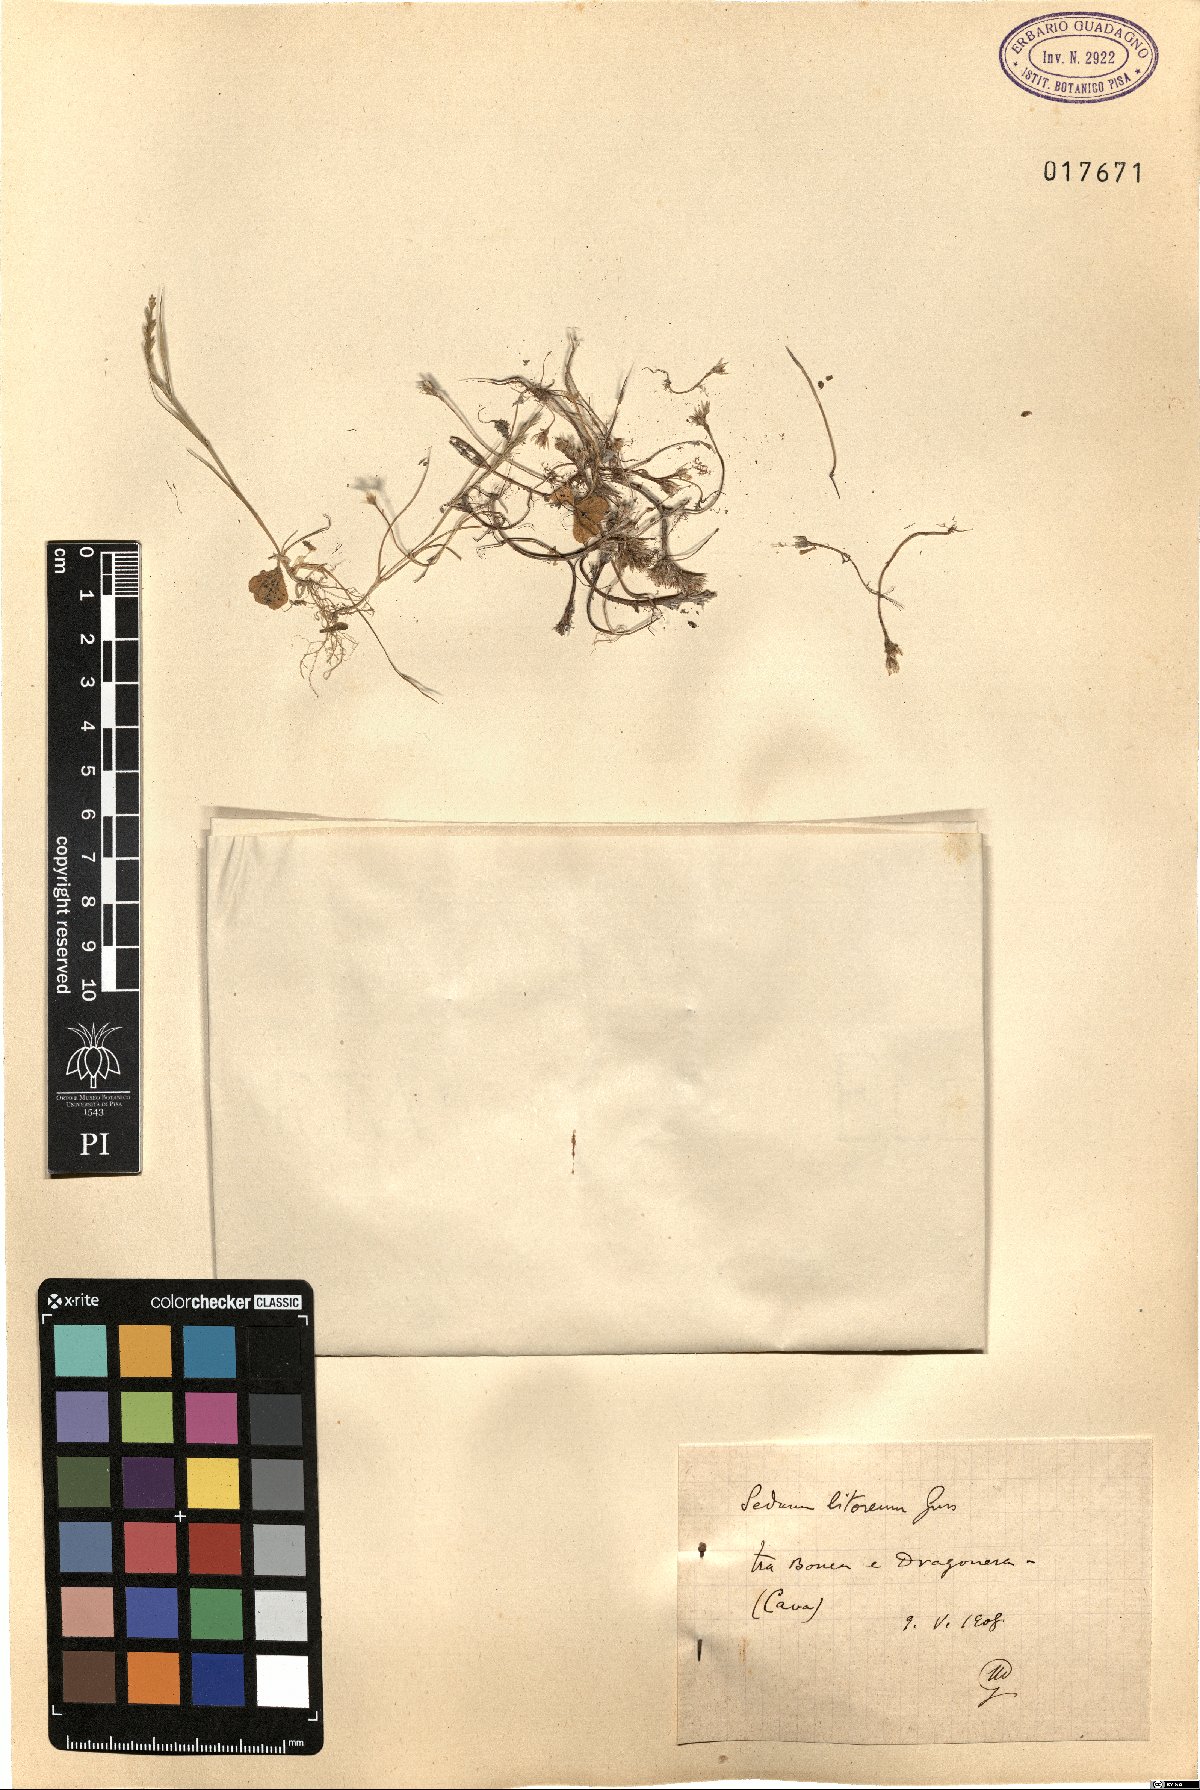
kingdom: Plantae
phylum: Tracheophyta
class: Magnoliopsida
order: Saxifragales
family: Crassulaceae
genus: Sedum
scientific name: Sedum litoreum
